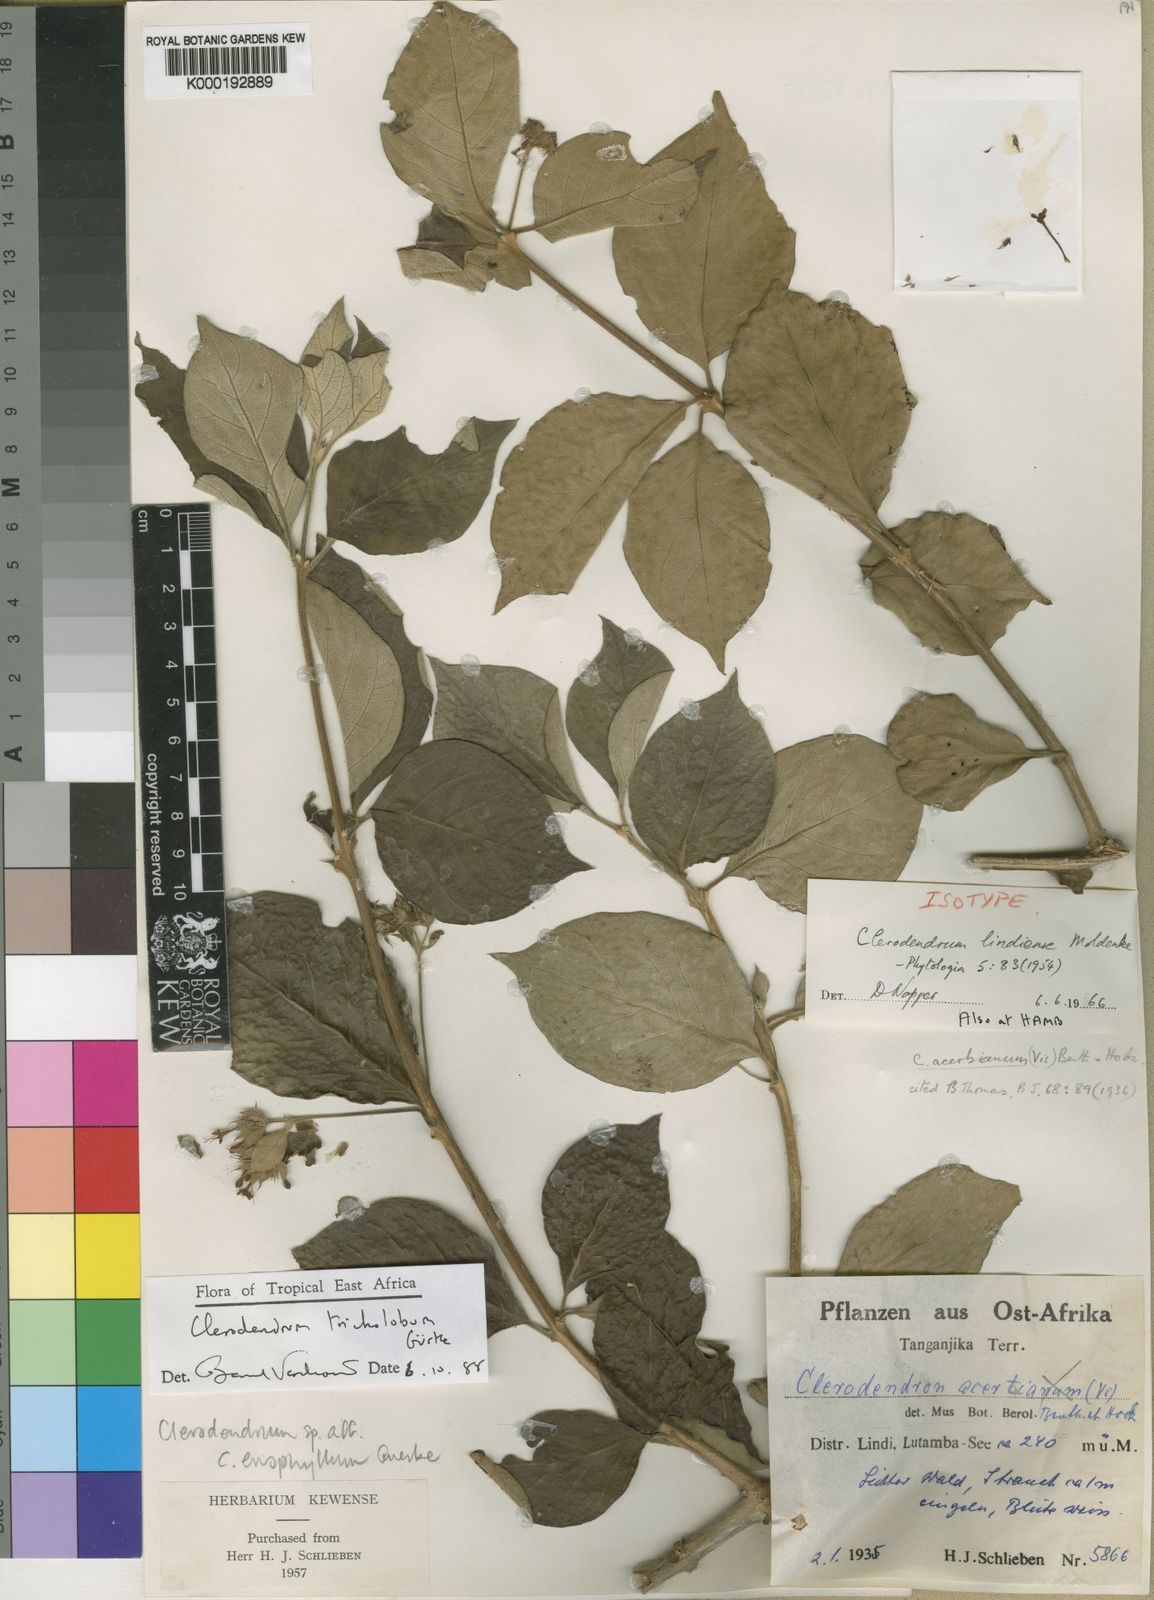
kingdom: Plantae
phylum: Tracheophyta
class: Magnoliopsida
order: Lamiales
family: Lamiaceae
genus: Clerodendrum
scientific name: Clerodendrum
